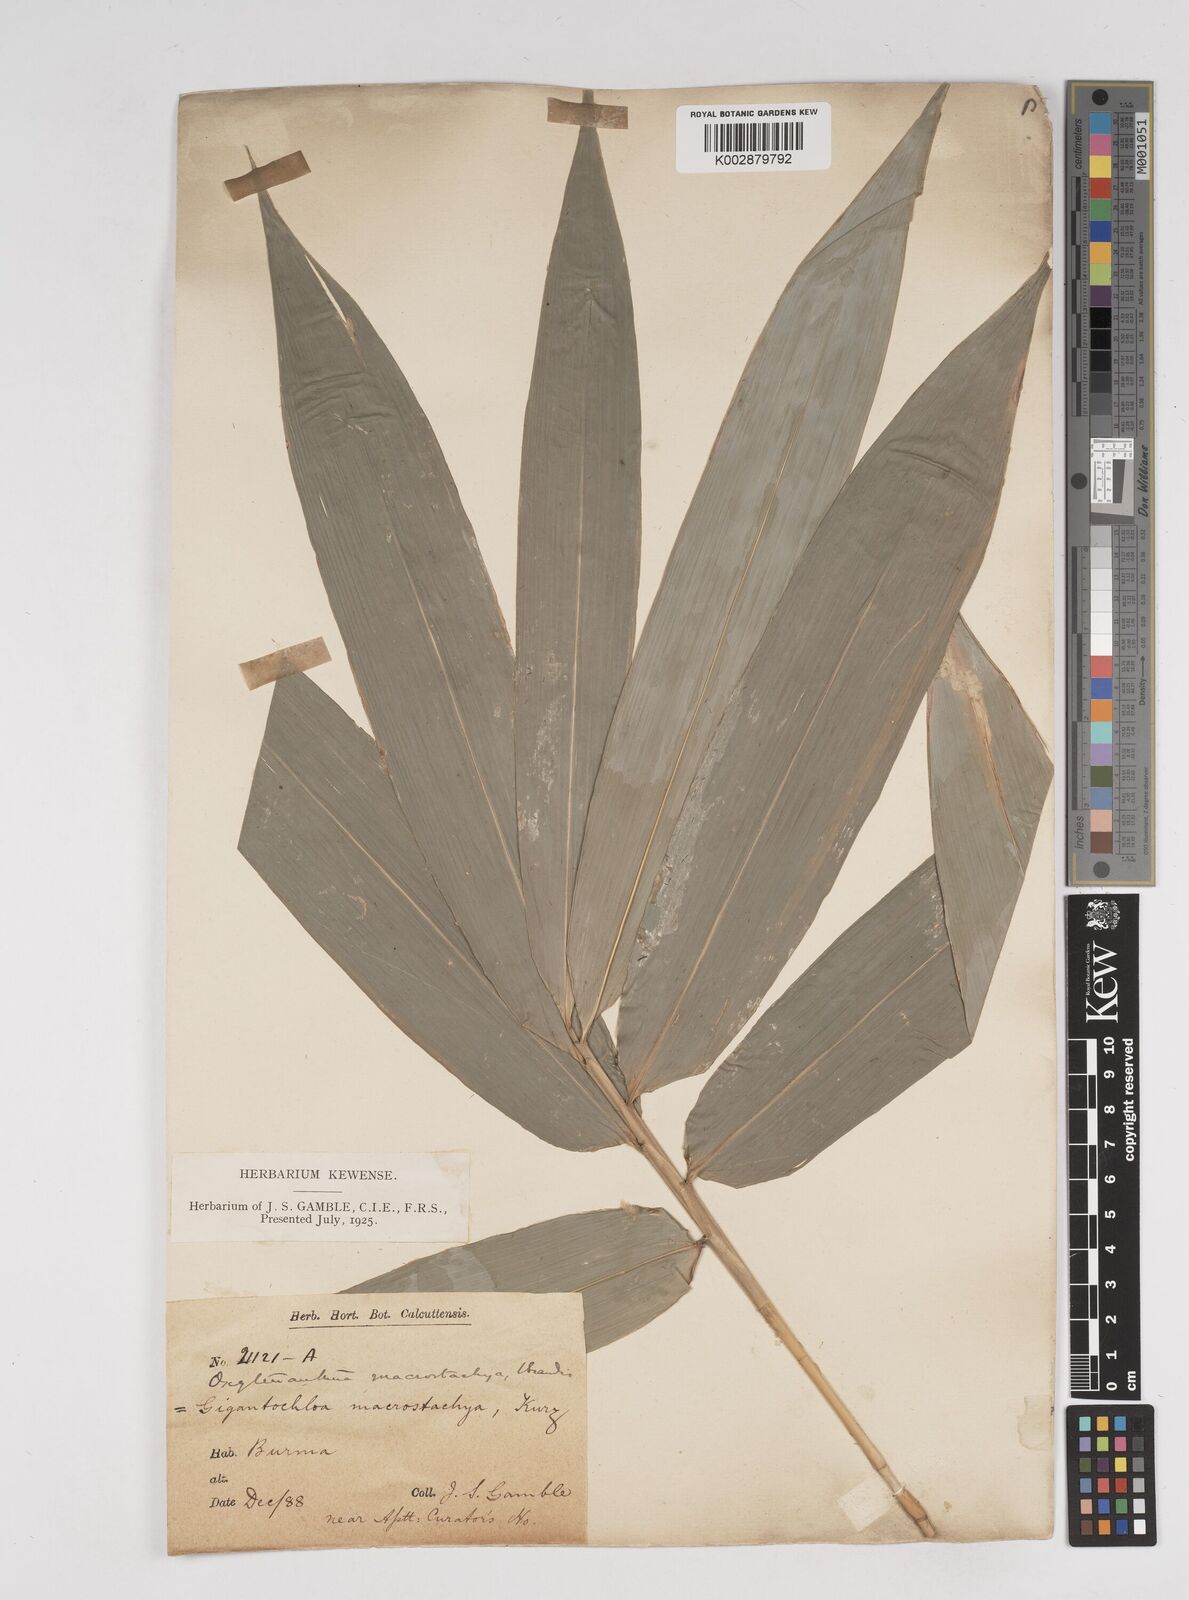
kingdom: Plantae
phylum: Tracheophyta
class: Liliopsida
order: Poales
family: Poaceae
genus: Gigantochloa
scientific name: Gigantochloa macrostachya
